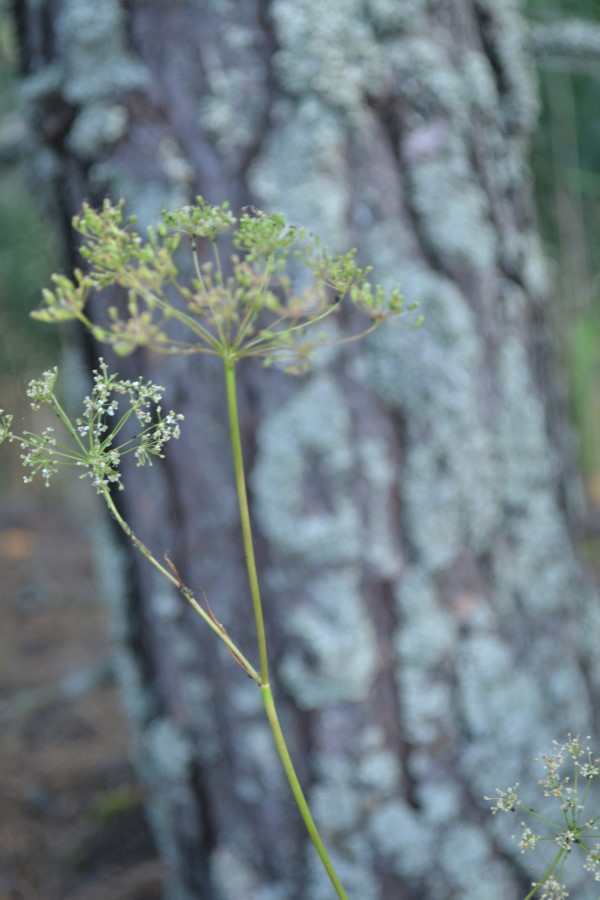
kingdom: Plantae
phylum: Tracheophyta
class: Magnoliopsida
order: Apiales
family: Apiaceae
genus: Pimpinella
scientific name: Pimpinella saxifraga
